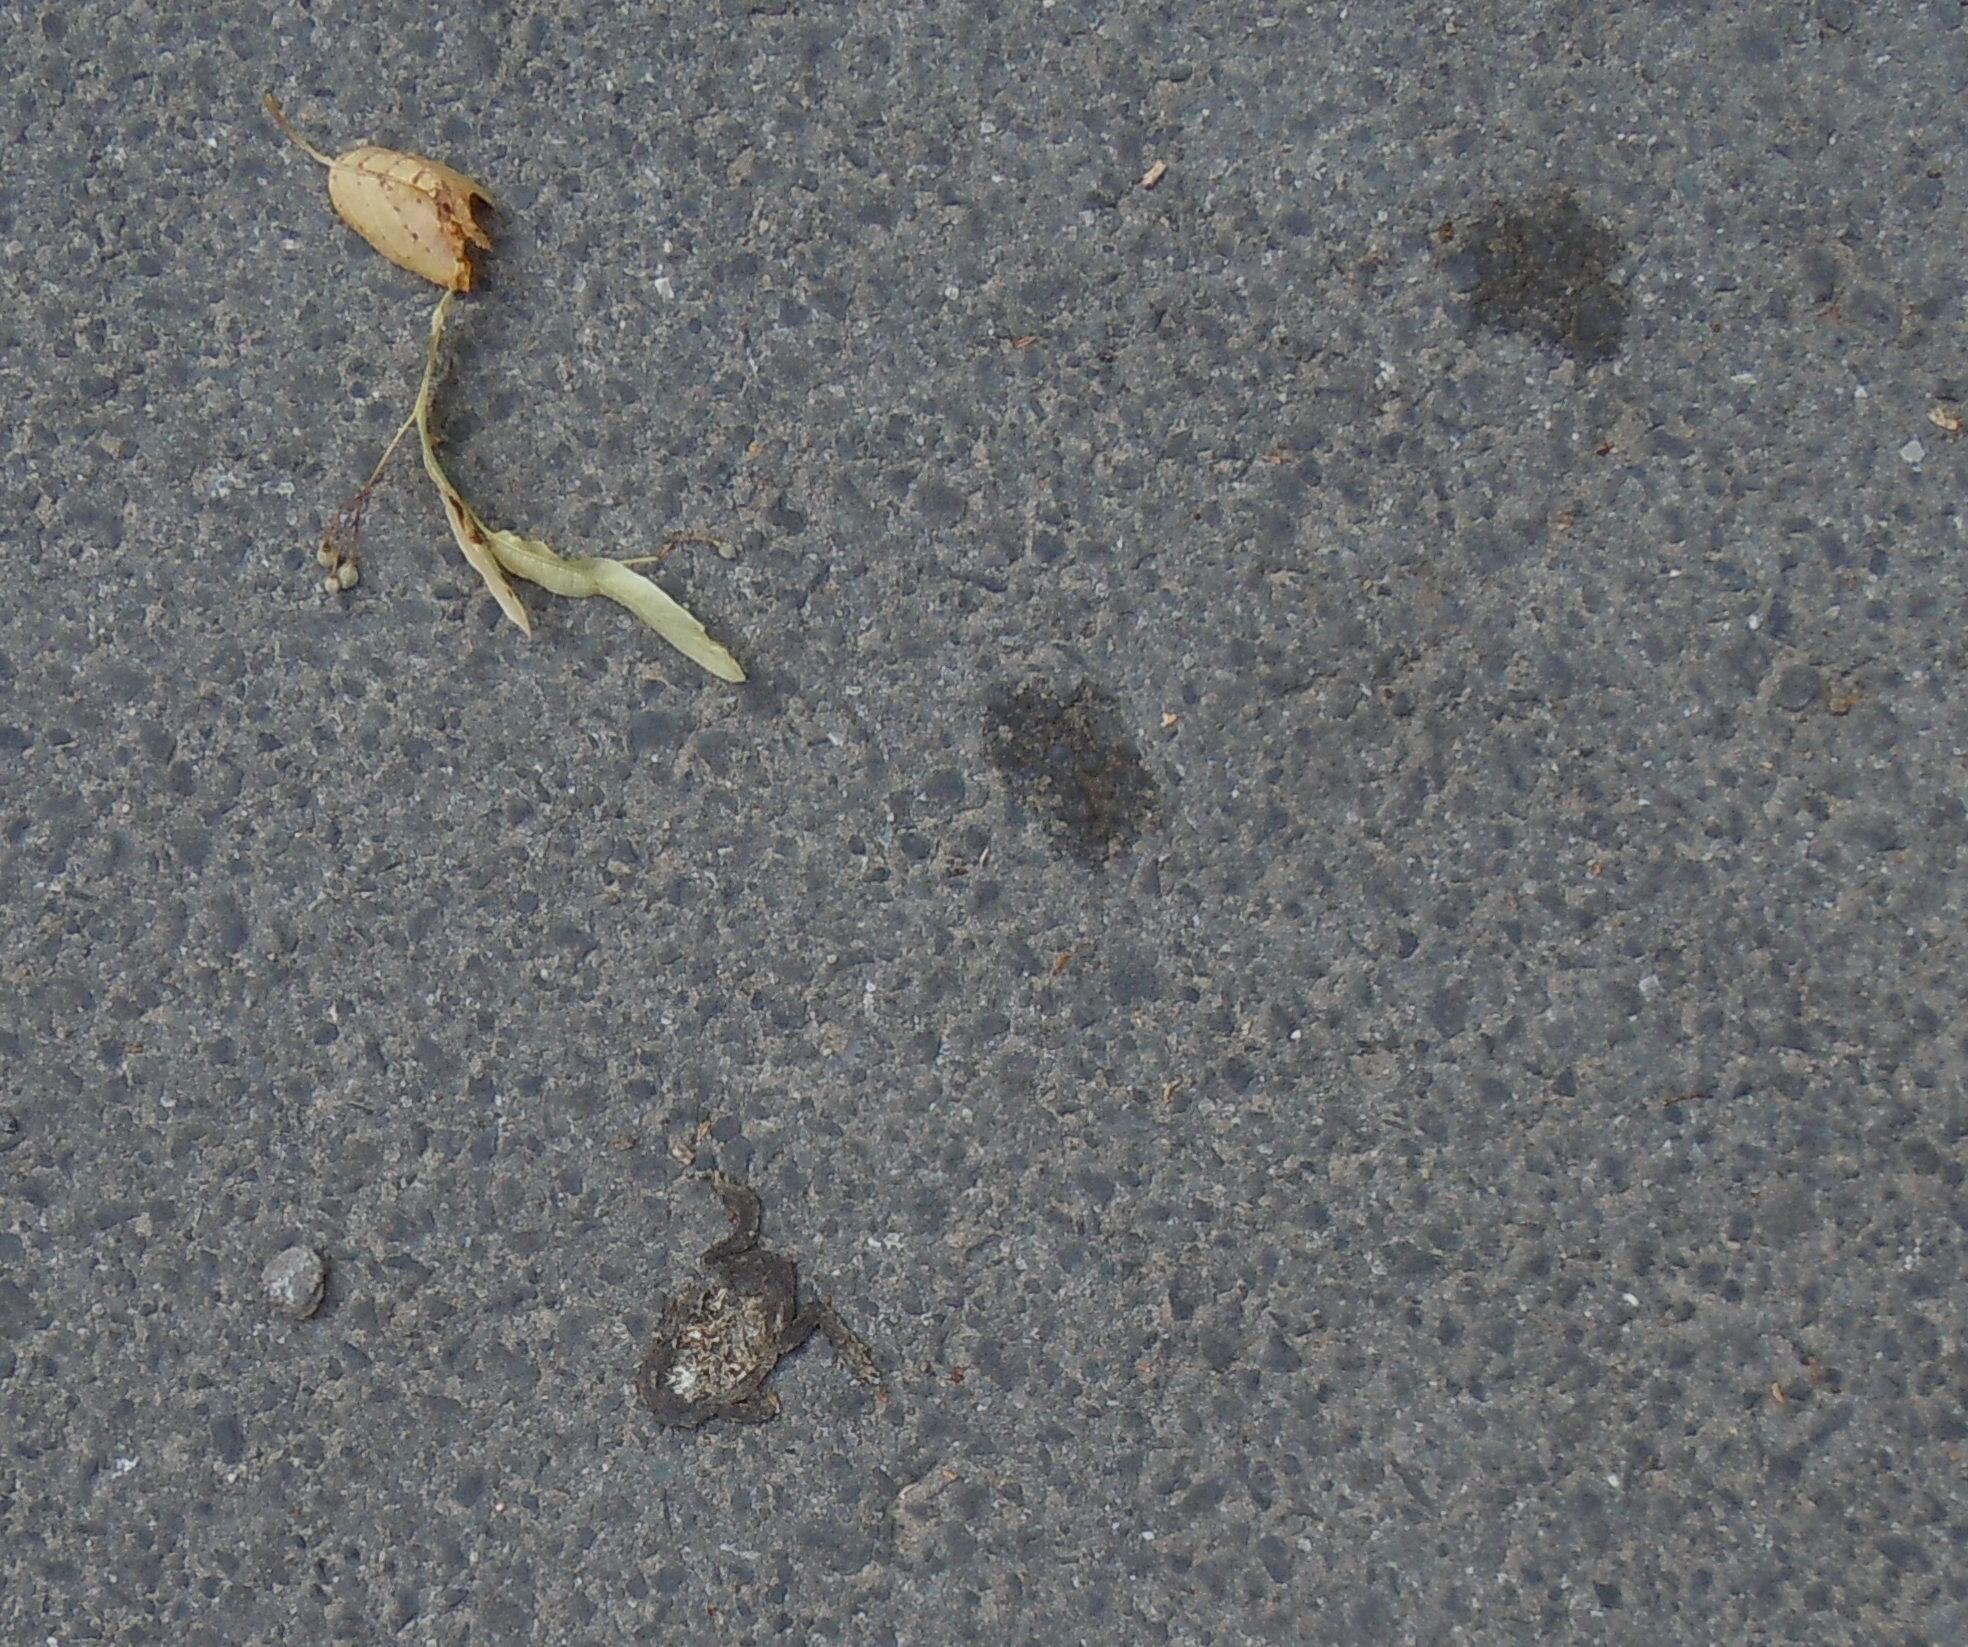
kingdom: Animalia
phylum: Chordata
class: Amphibia
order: Anura
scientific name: Anura
